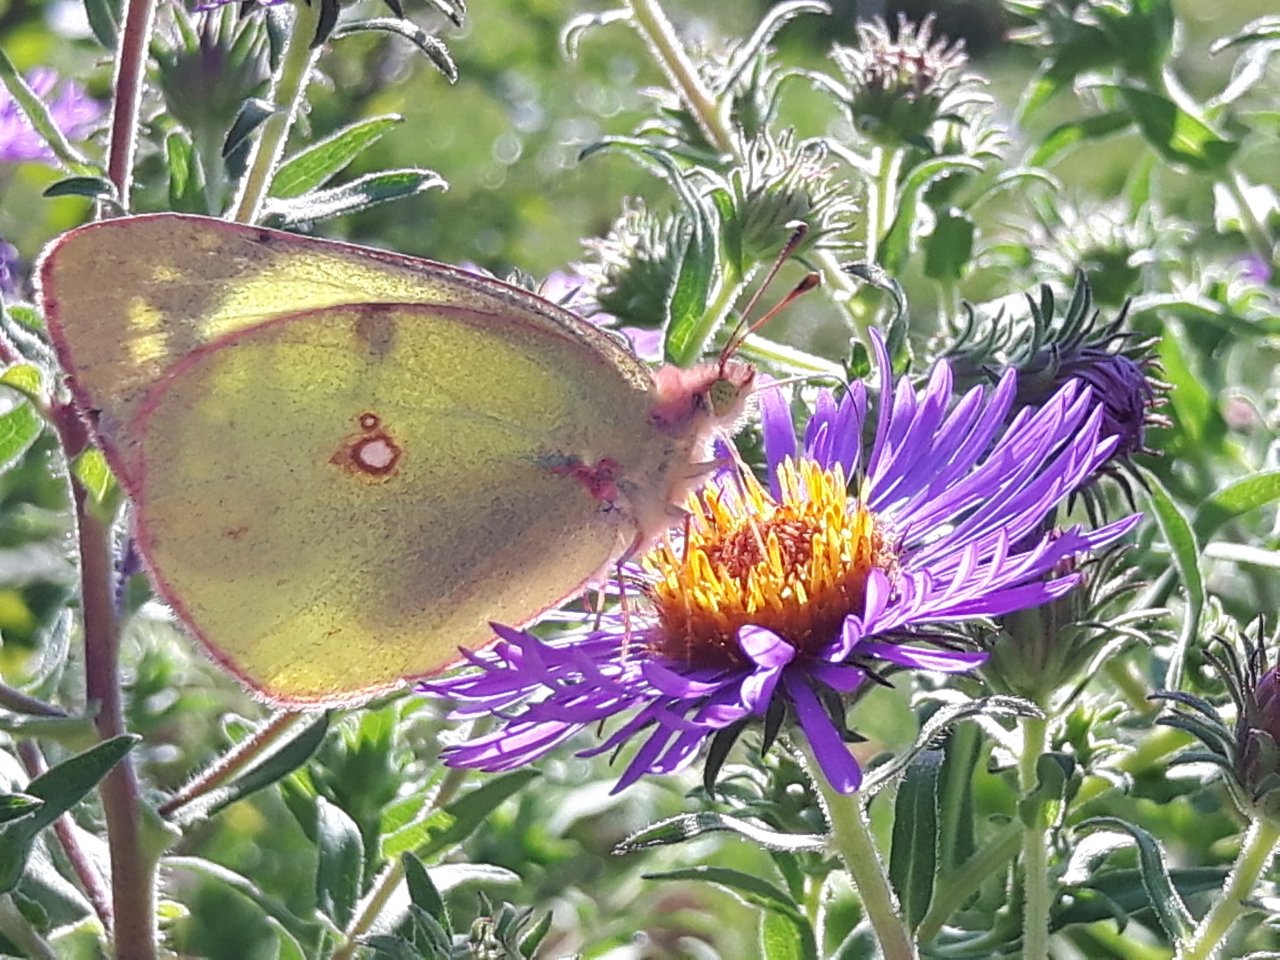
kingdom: Animalia
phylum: Arthropoda
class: Insecta
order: Lepidoptera
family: Pieridae
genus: Colias
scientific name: Colias philodice
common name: Clouded Sulphur
